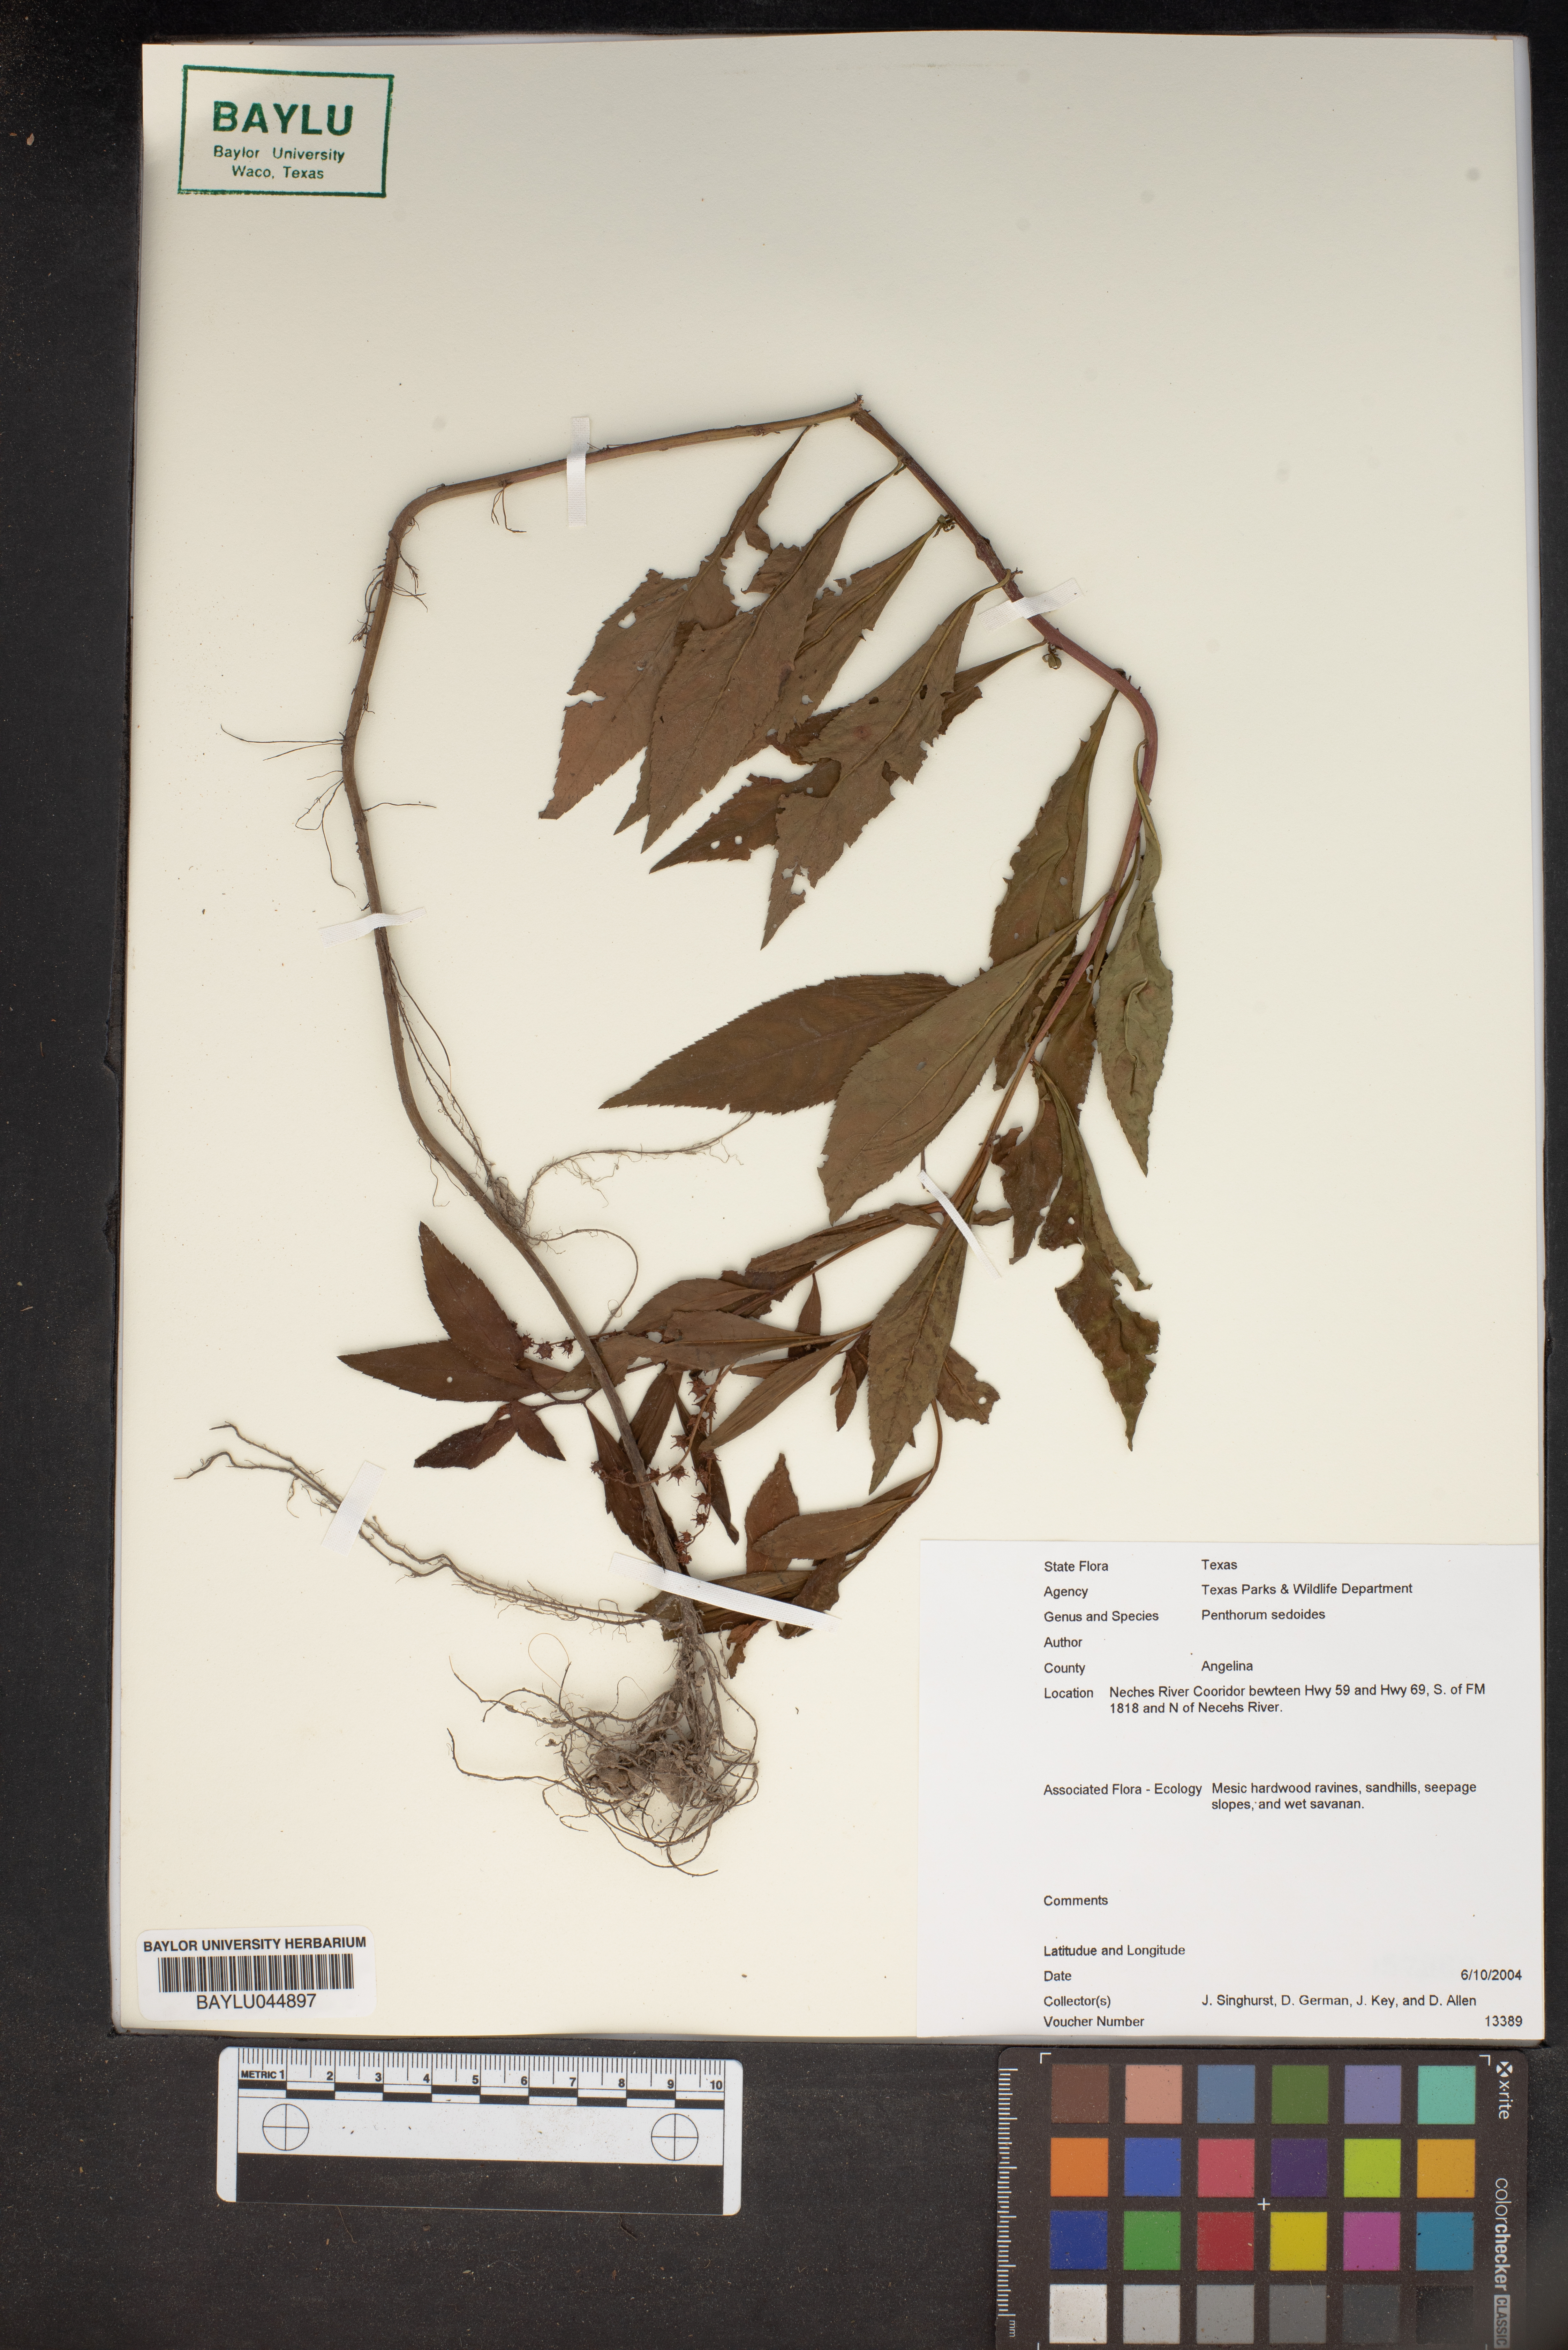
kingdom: Plantae
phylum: Tracheophyta
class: Magnoliopsida
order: Saxifragales
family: Penthoraceae
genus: Penthorum
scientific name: Penthorum sedoides
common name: Ditch stonecrop
